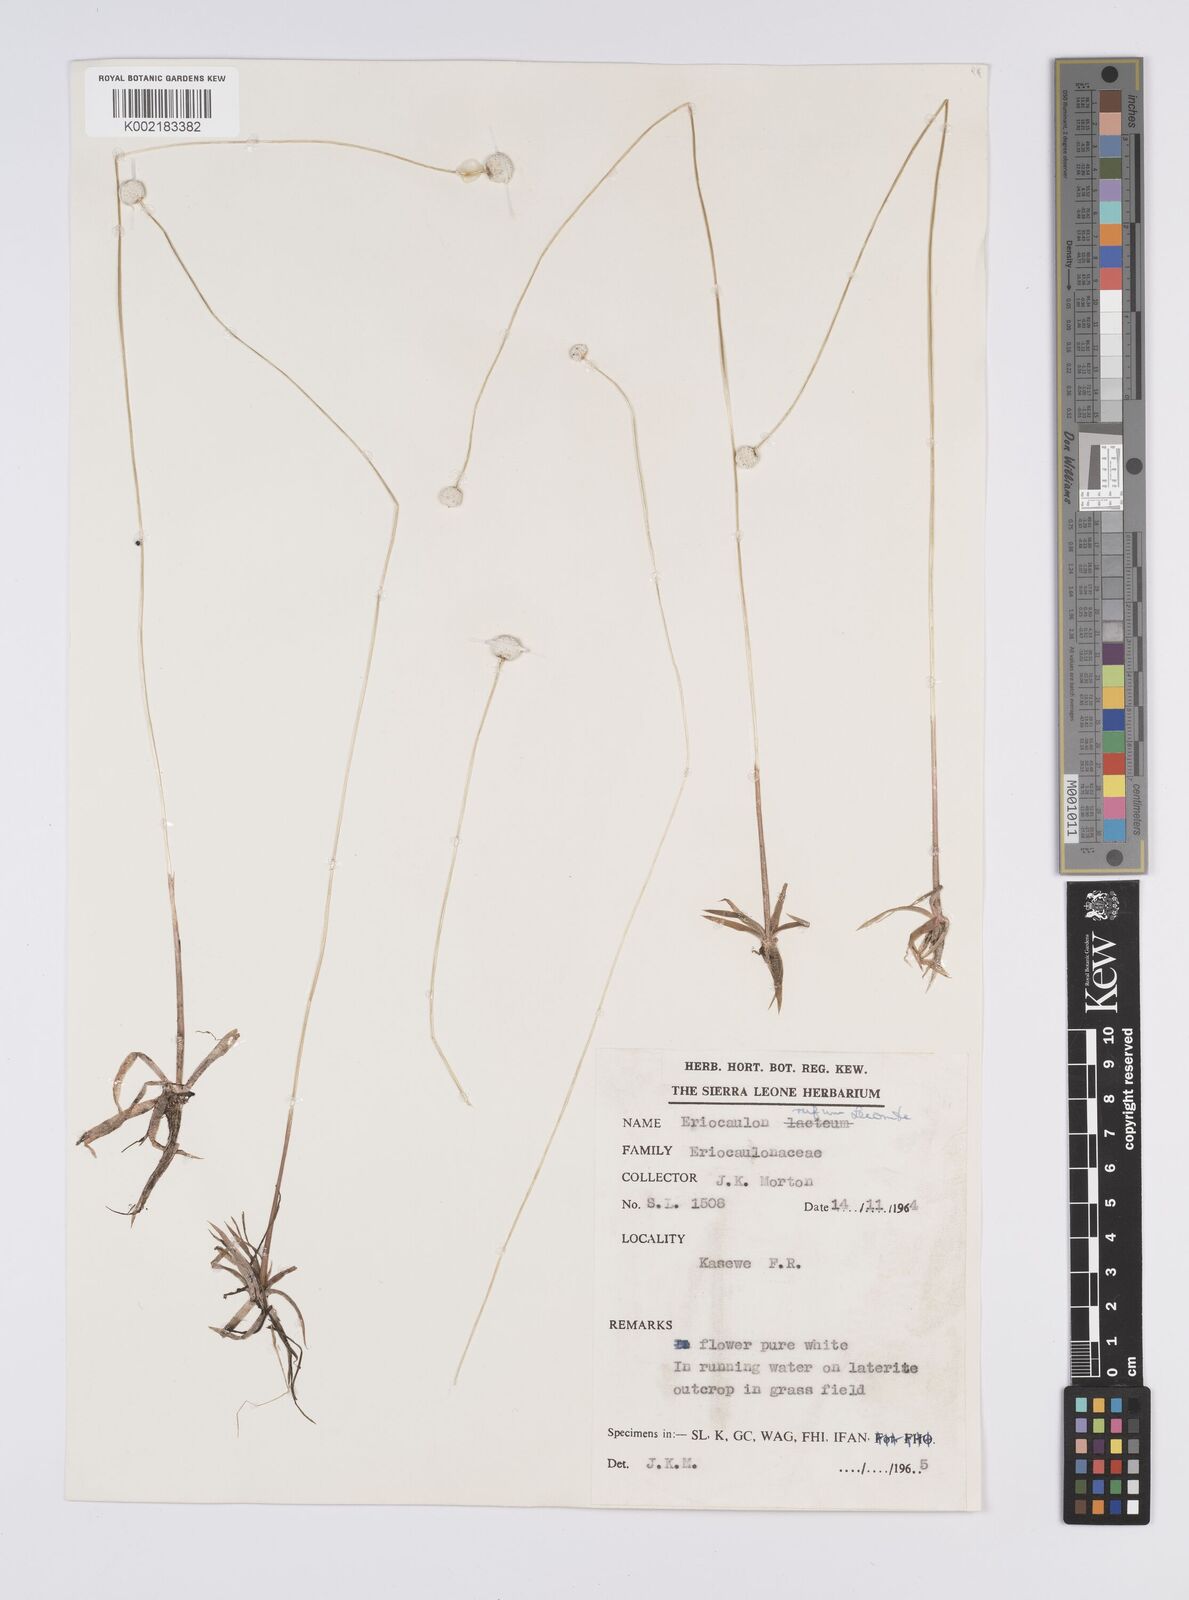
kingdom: Plantae
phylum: Tracheophyta
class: Liliopsida
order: Poales
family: Eriocaulaceae
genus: Eriocaulon
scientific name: Eriocaulon rufum
